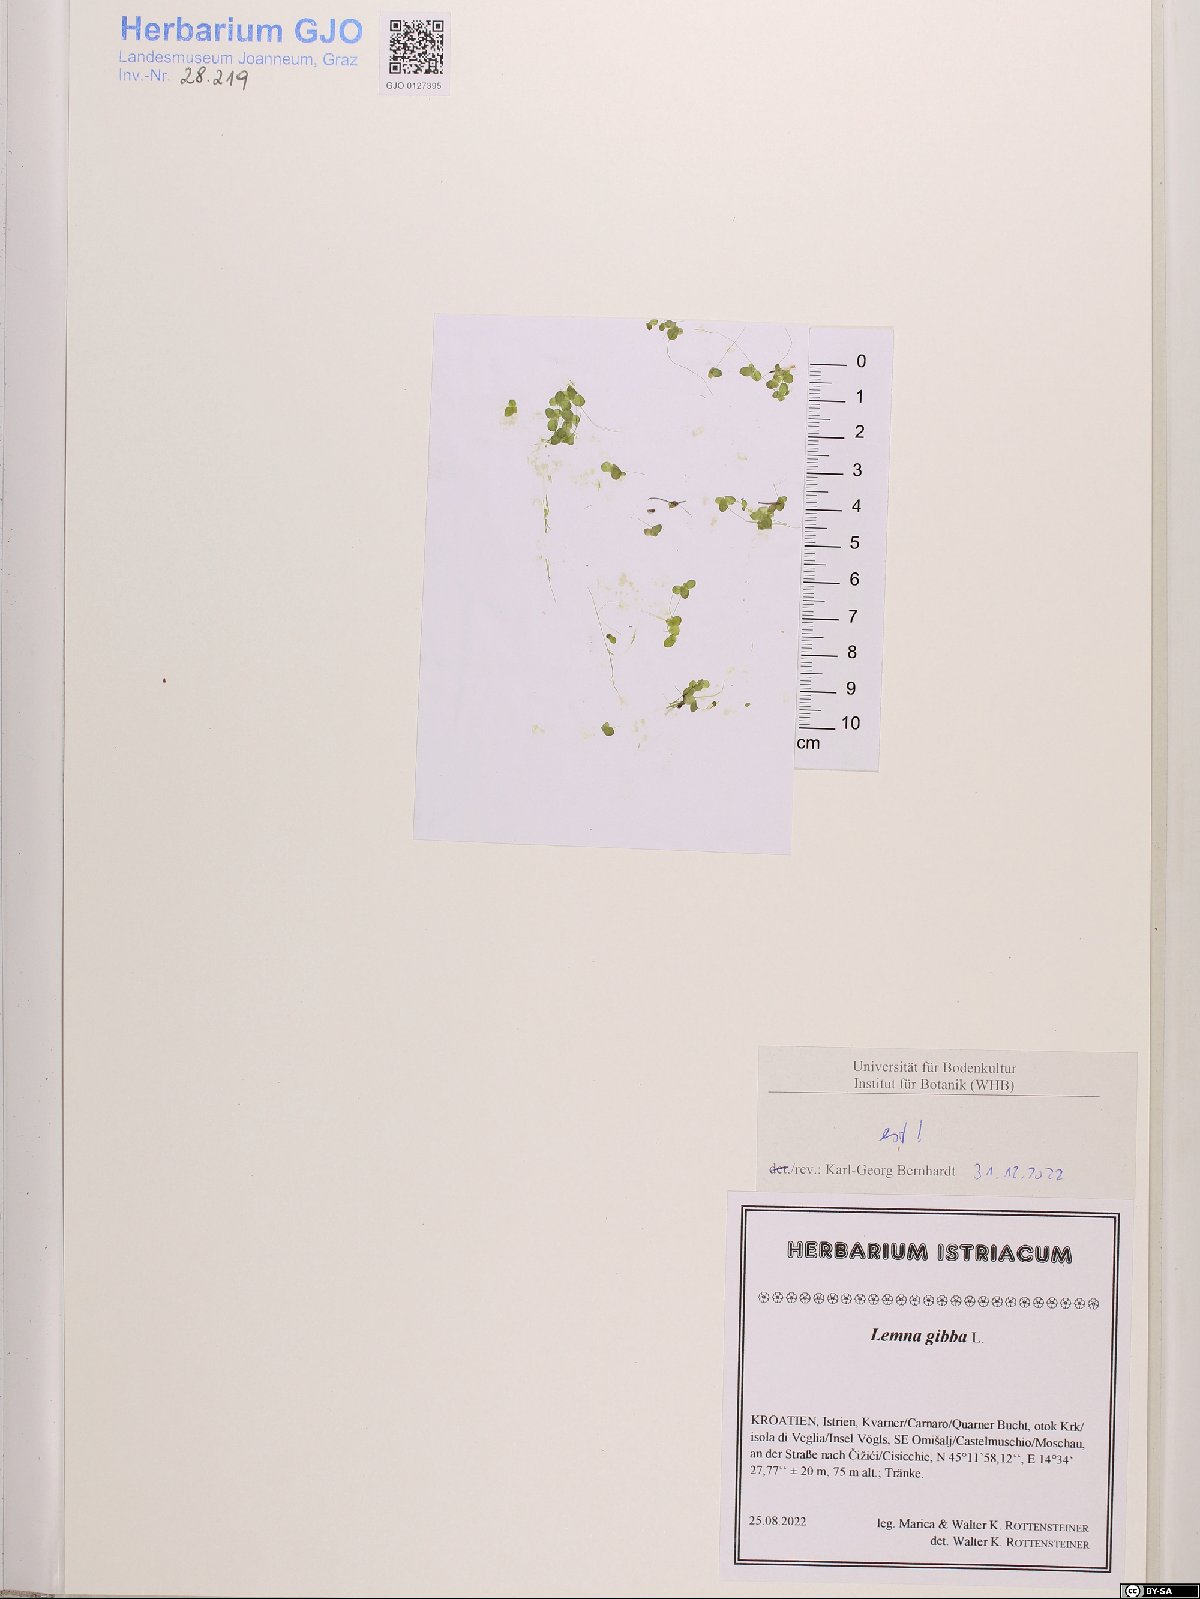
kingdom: Plantae
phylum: Tracheophyta
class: Liliopsida
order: Alismatales
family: Araceae
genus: Lemna
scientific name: Lemna gibba
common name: Fat duckweed
